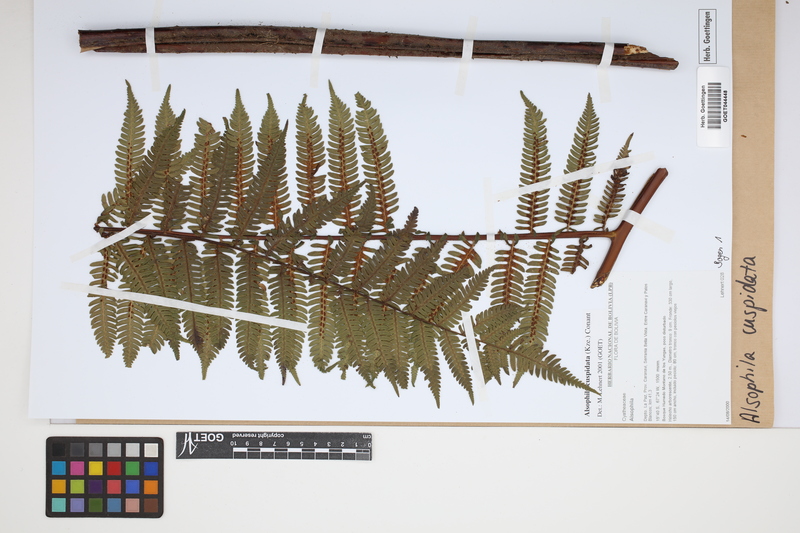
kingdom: Plantae
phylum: Tracheophyta
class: Polypodiopsida
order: Cyatheales
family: Cyatheaceae
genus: Alsophila
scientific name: Alsophila cuspidata
